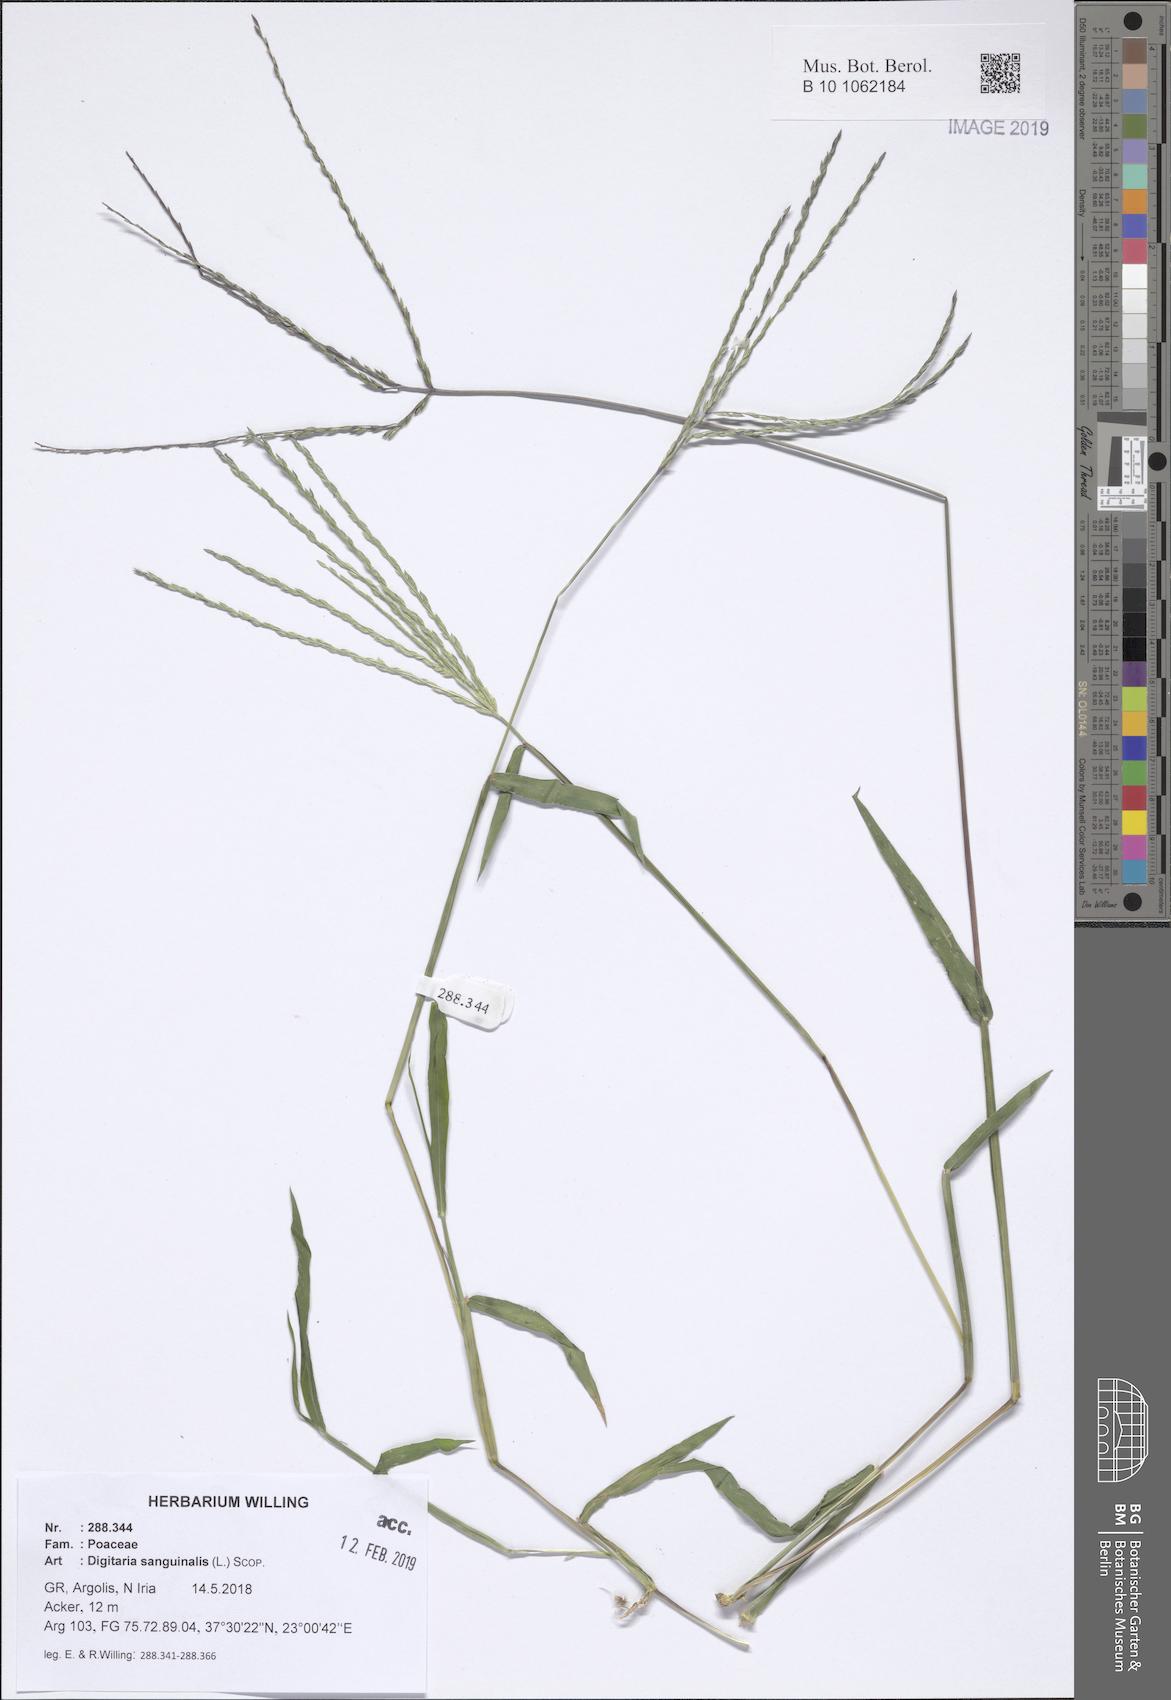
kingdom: Plantae
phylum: Tracheophyta
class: Liliopsida
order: Poales
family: Poaceae
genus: Digitaria
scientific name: Digitaria sanguinalis
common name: Hairy crabgrass
